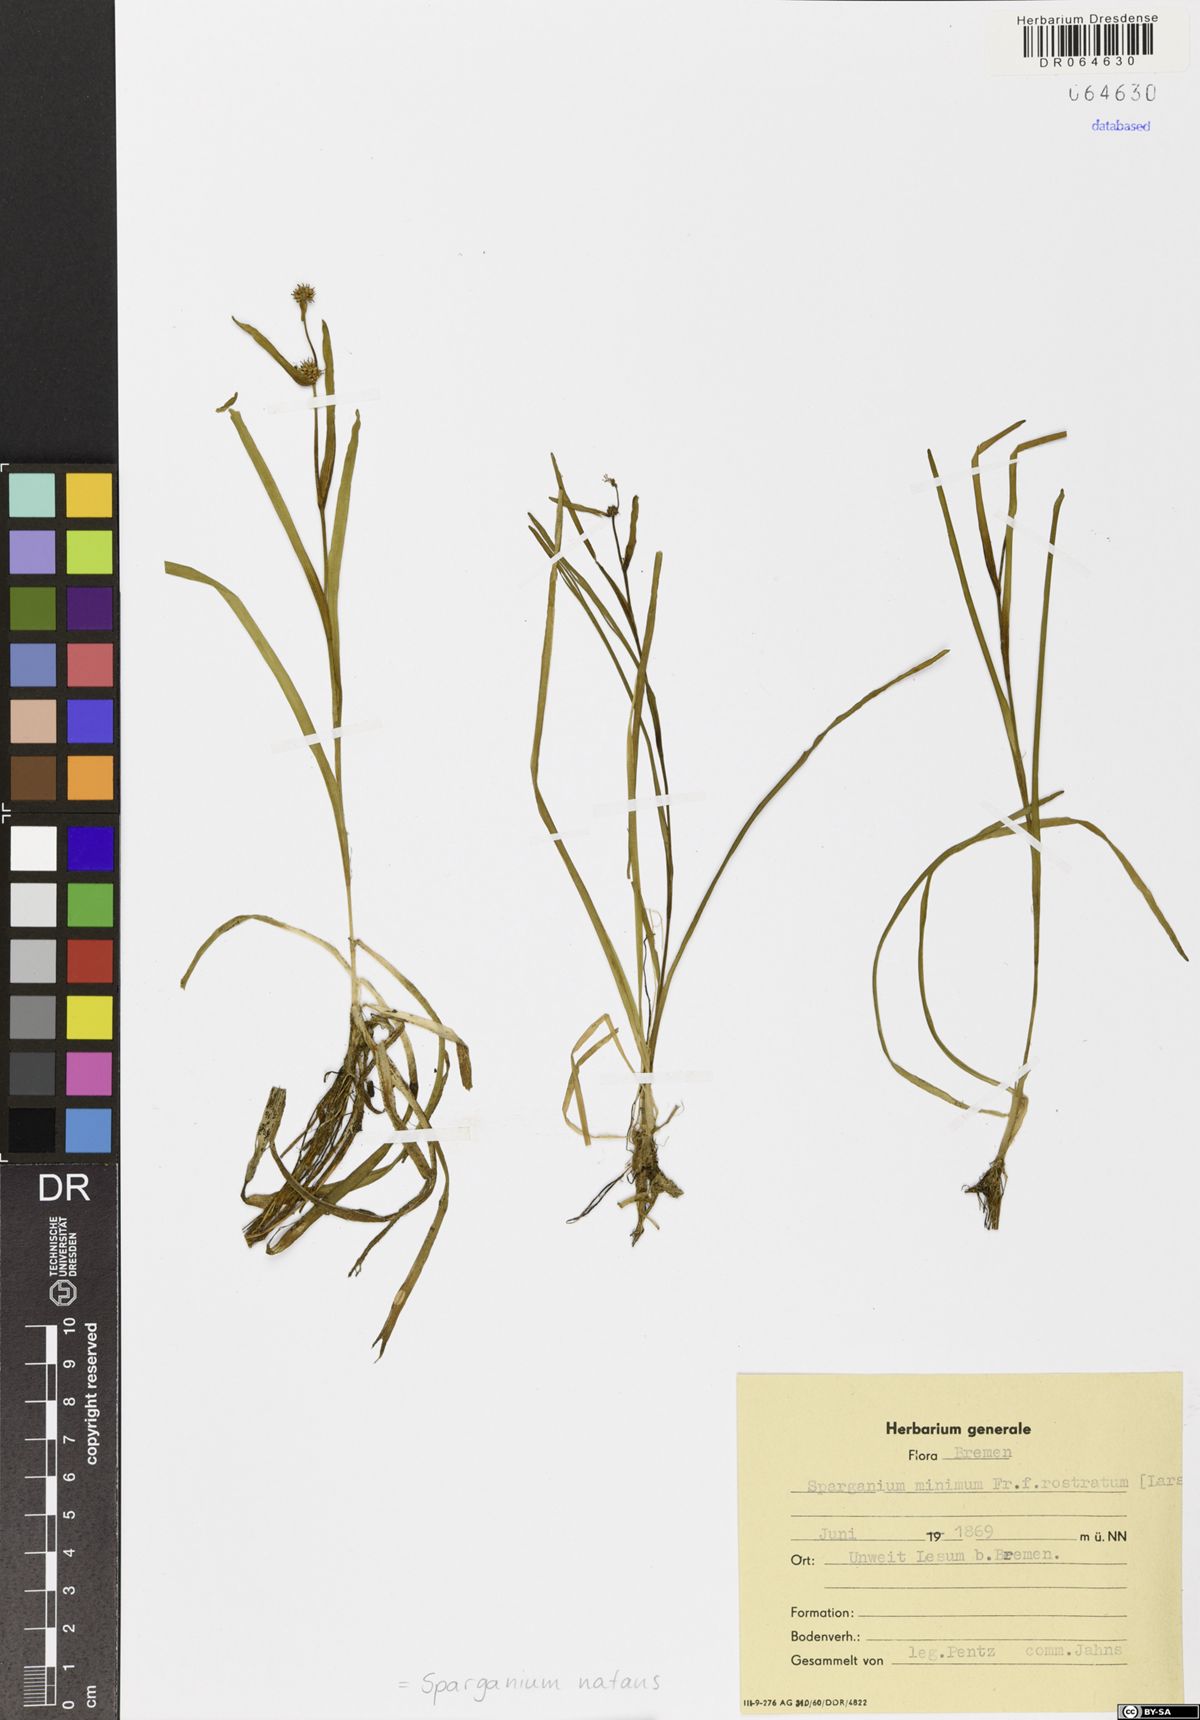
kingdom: Plantae
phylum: Tracheophyta
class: Liliopsida
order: Poales
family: Typhaceae
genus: Sparganium
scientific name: Sparganium natans
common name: Least bur-reed
